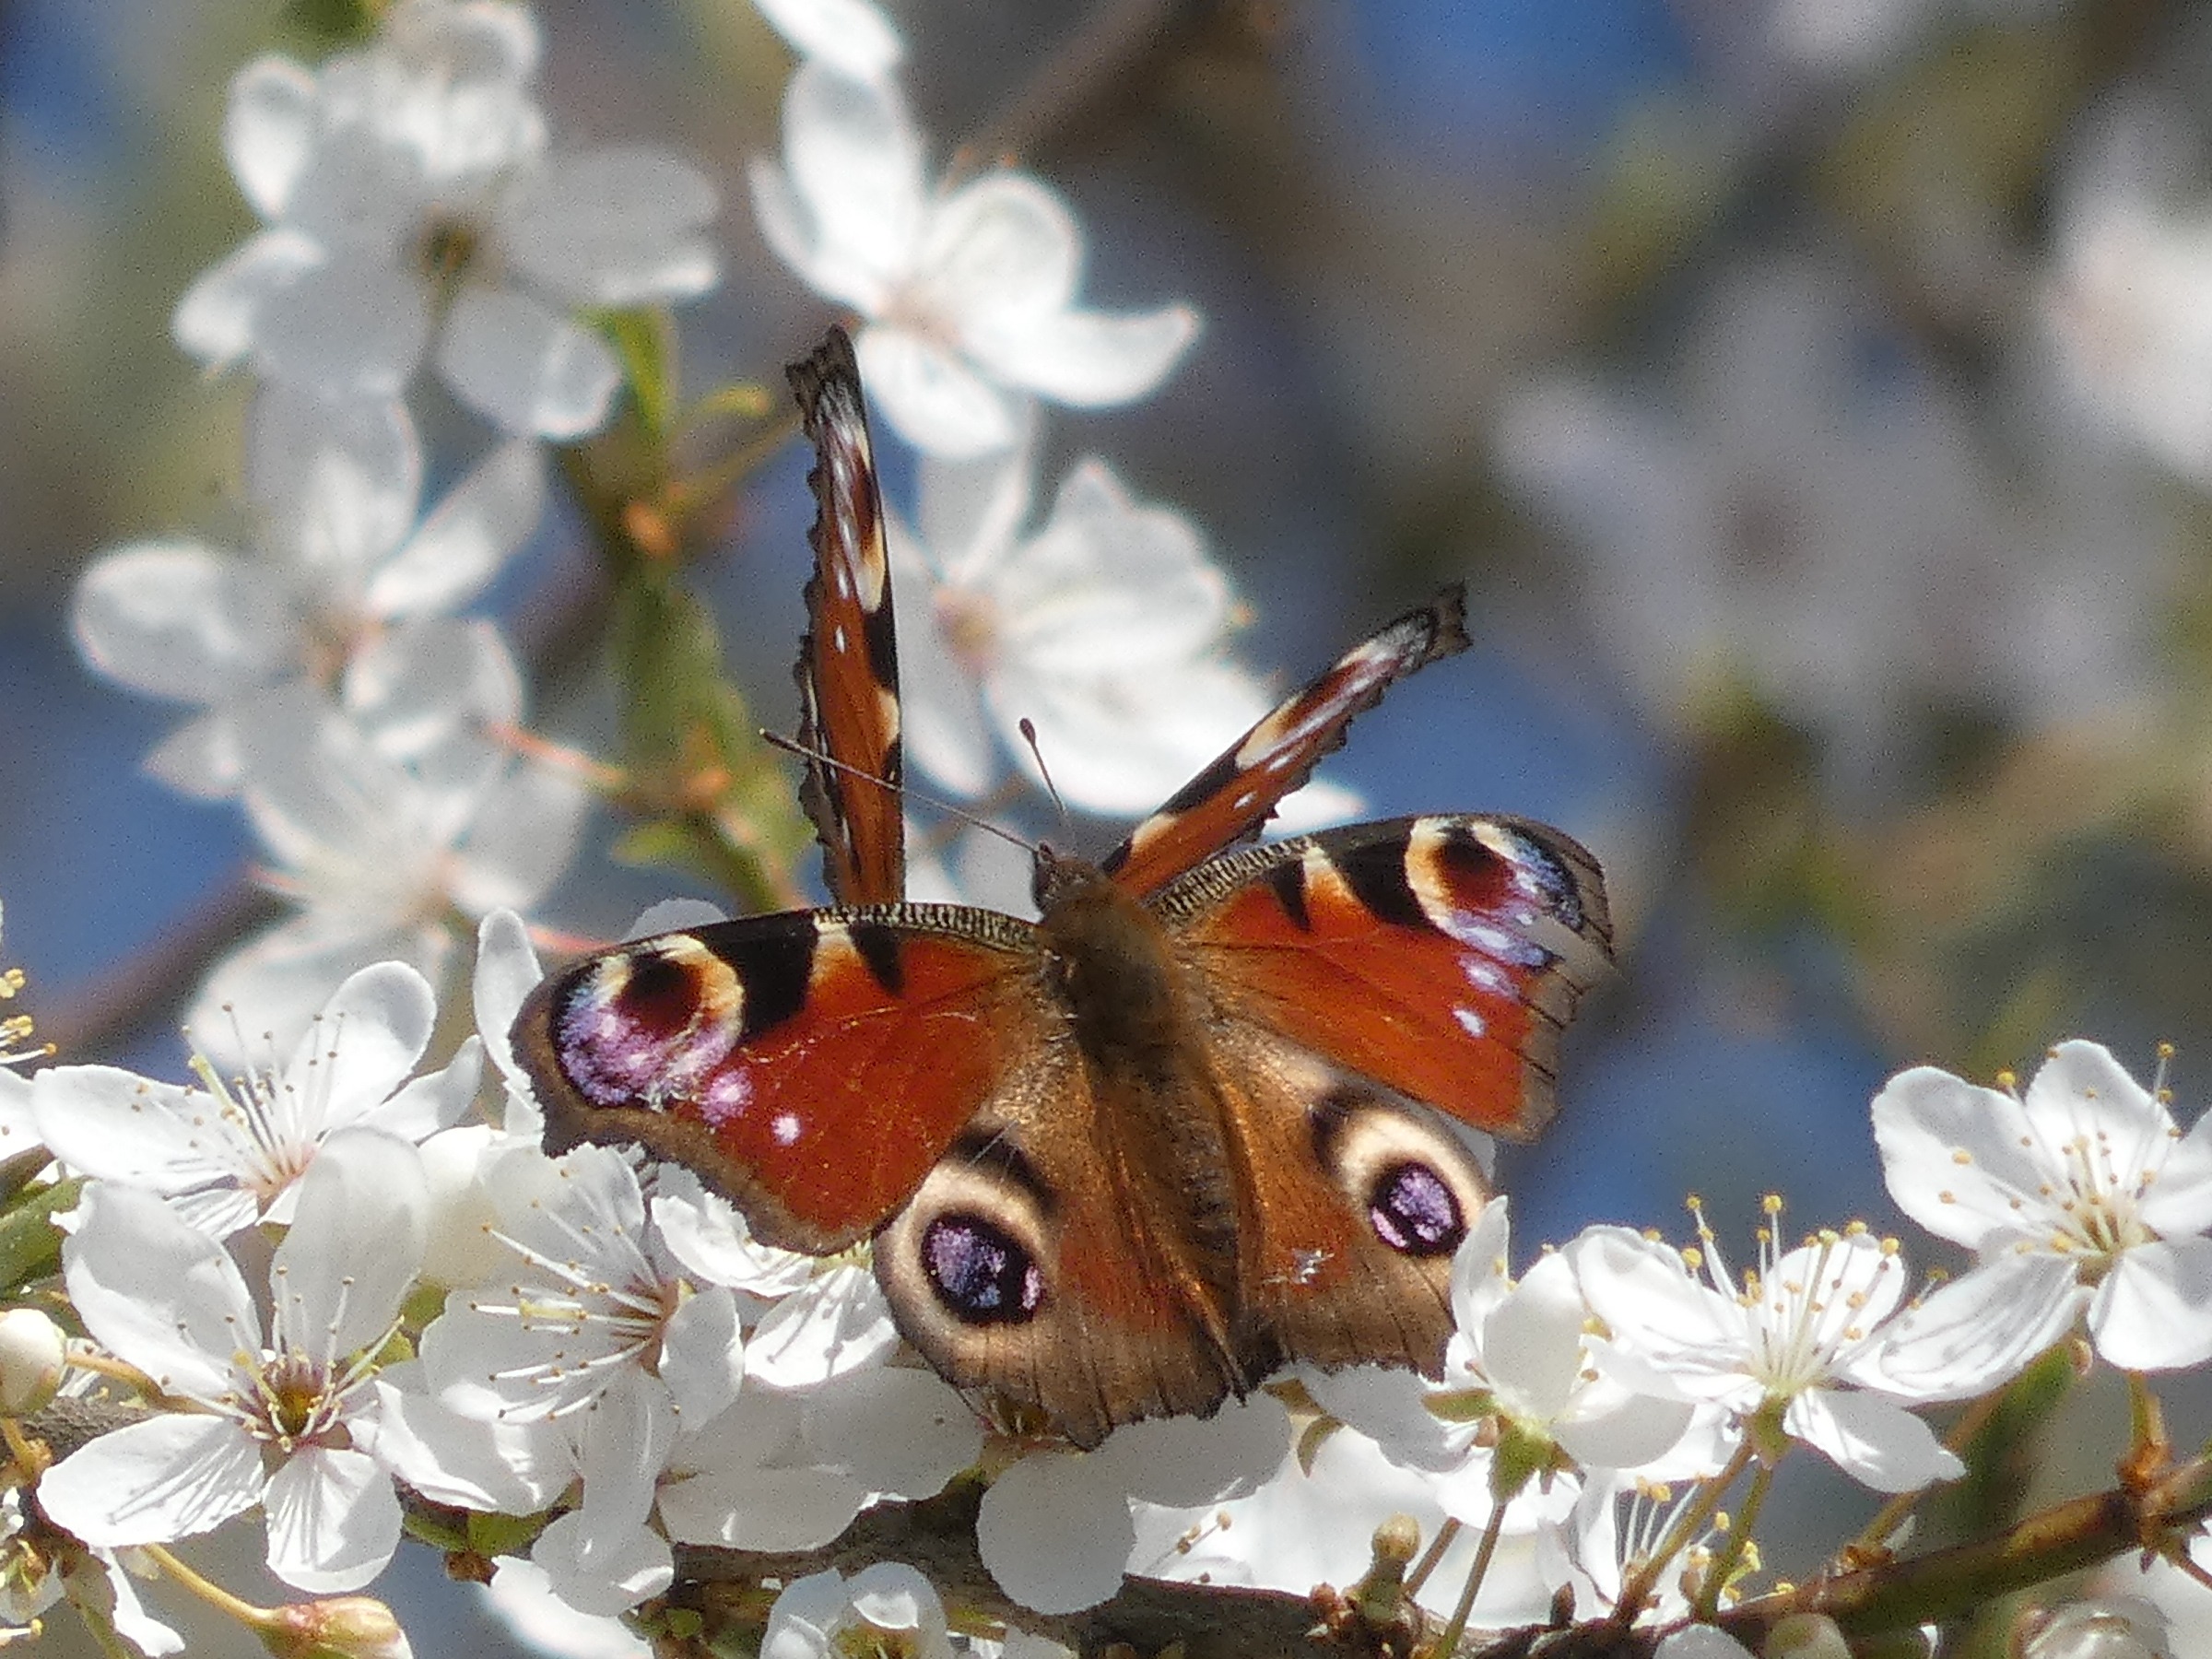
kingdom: Animalia
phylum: Arthropoda
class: Insecta
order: Lepidoptera
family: Nymphalidae
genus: Aglais
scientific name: Aglais io
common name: Dagpåfugleøje
